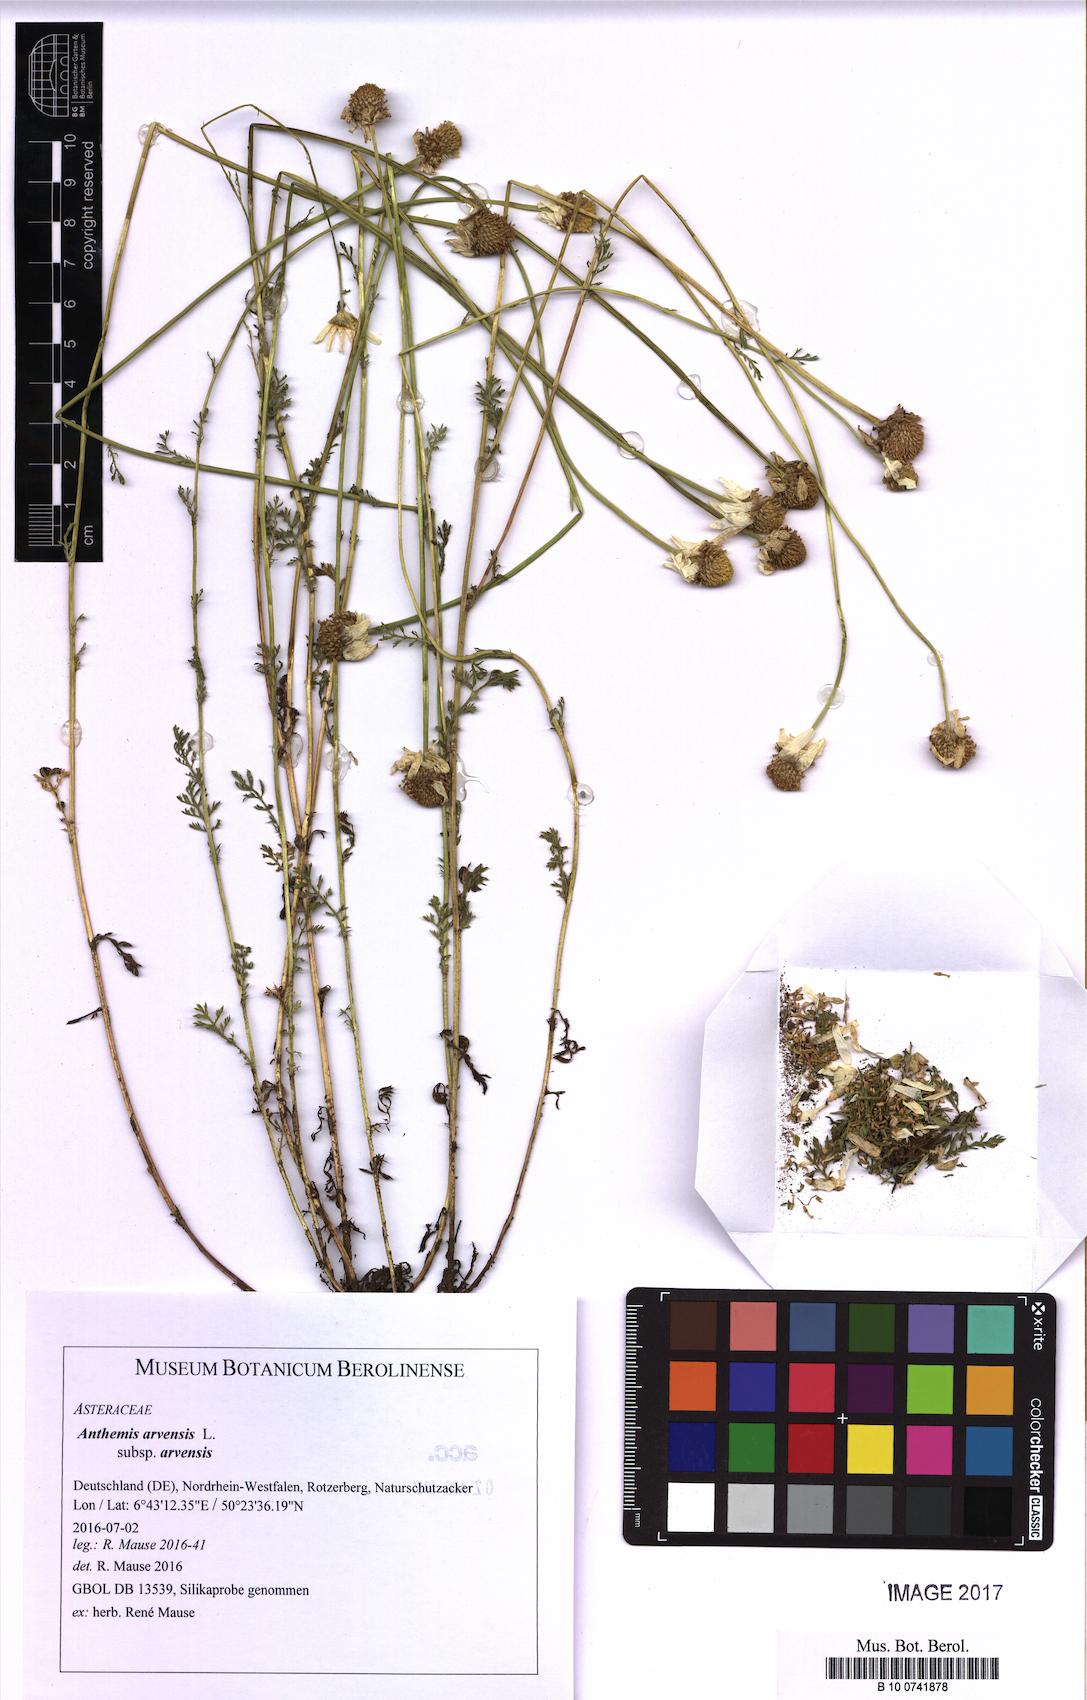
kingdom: Plantae
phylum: Tracheophyta
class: Magnoliopsida
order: Asterales
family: Asteraceae
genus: Anthemis
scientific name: Anthemis arvensis
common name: Corn chamomile
